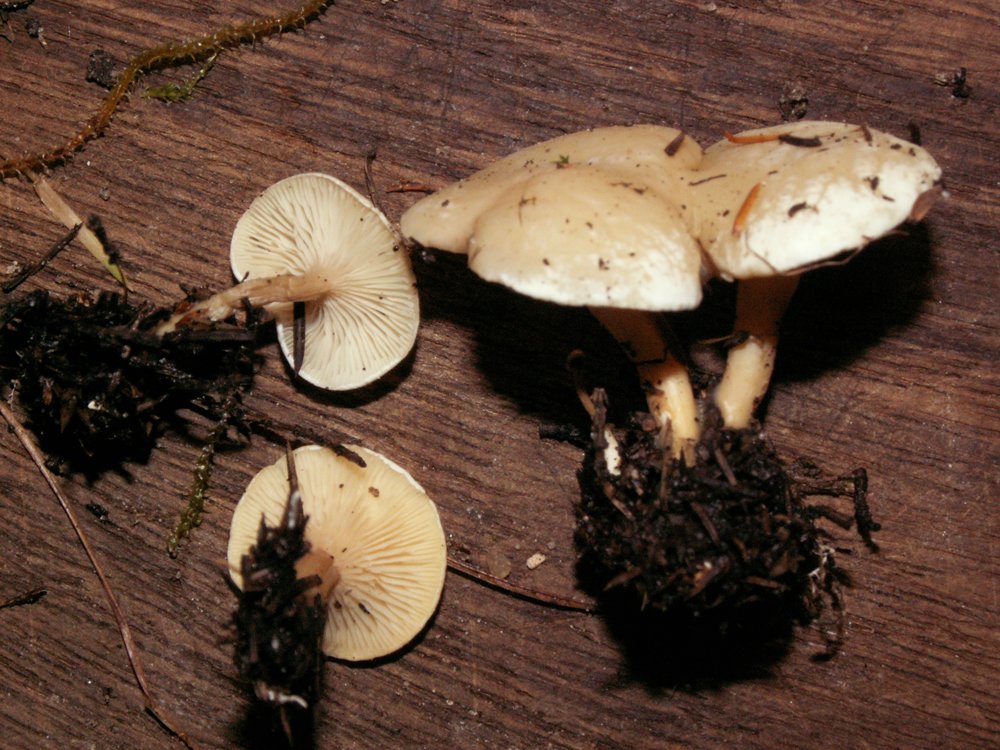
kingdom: Fungi
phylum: Basidiomycota
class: Agaricomycetes
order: Agaricales
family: Tricholomataceae
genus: Lulesia
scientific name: Lulesia
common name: hvid troldhat
